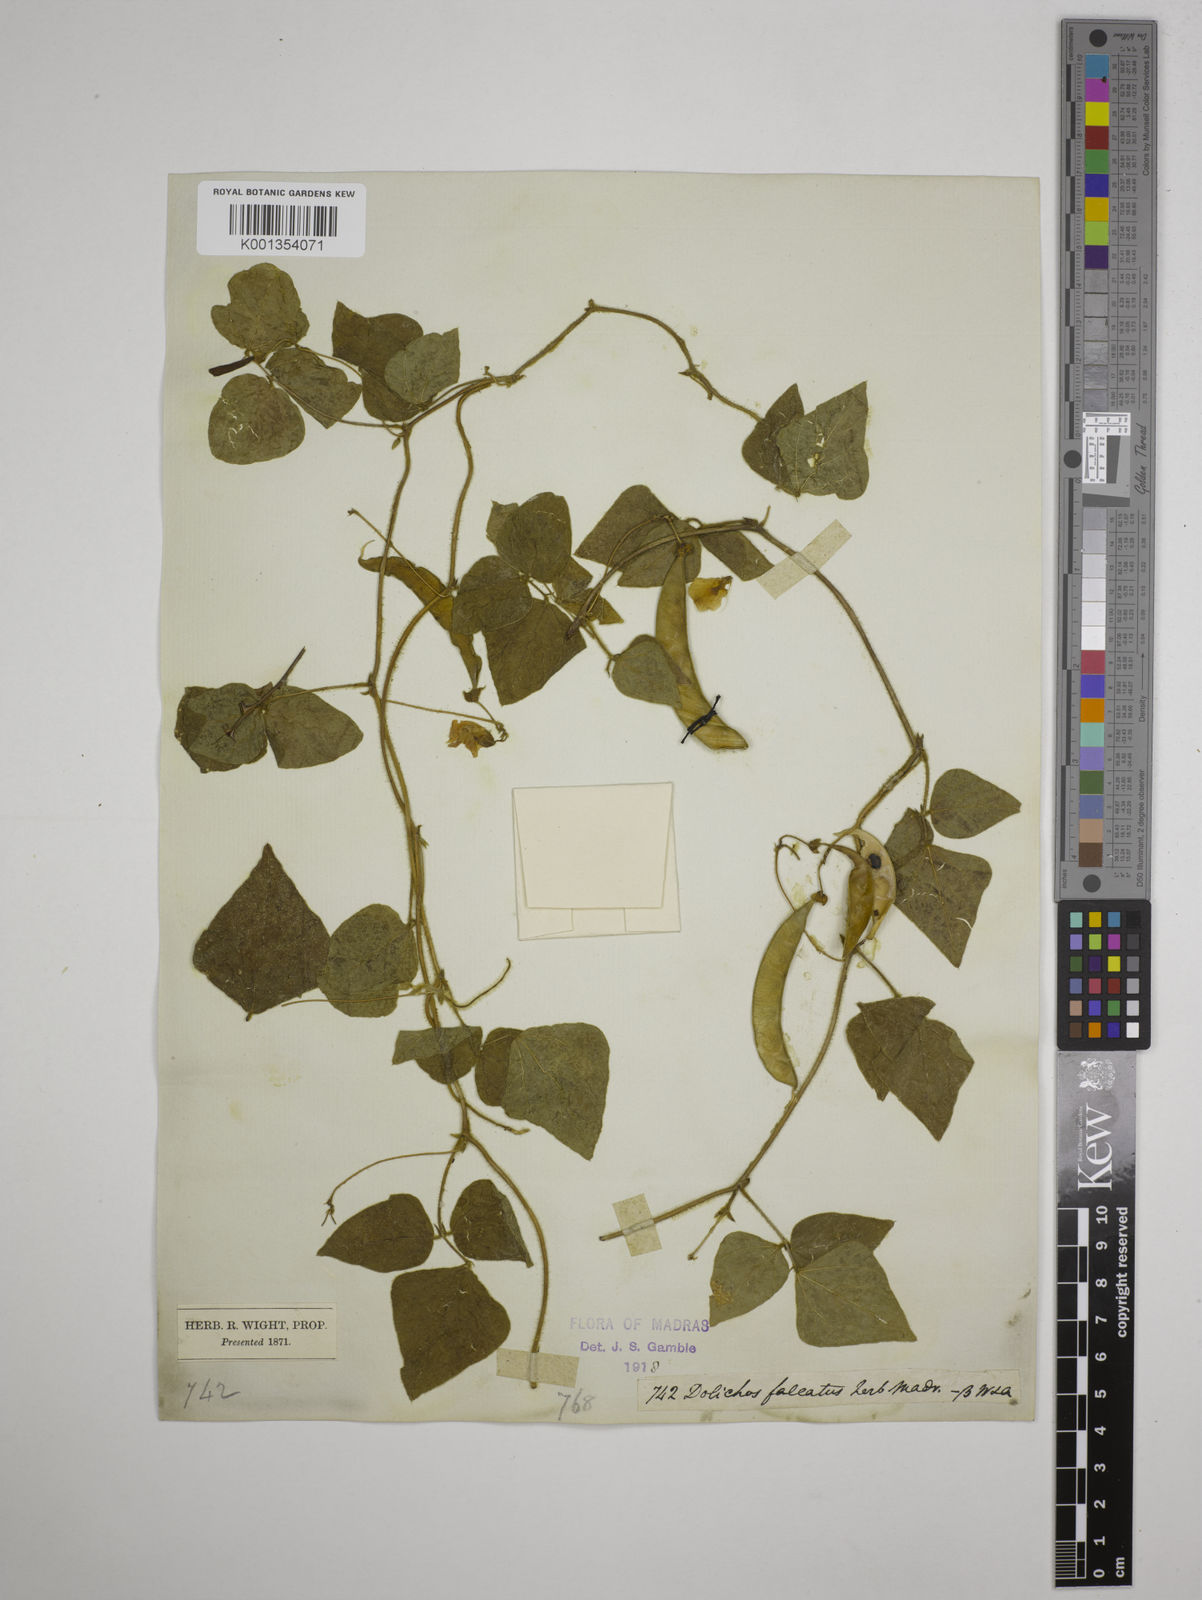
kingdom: Plantae
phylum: Tracheophyta
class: Magnoliopsida
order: Fabales
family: Fabaceae
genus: Dolichos
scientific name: Dolichos
